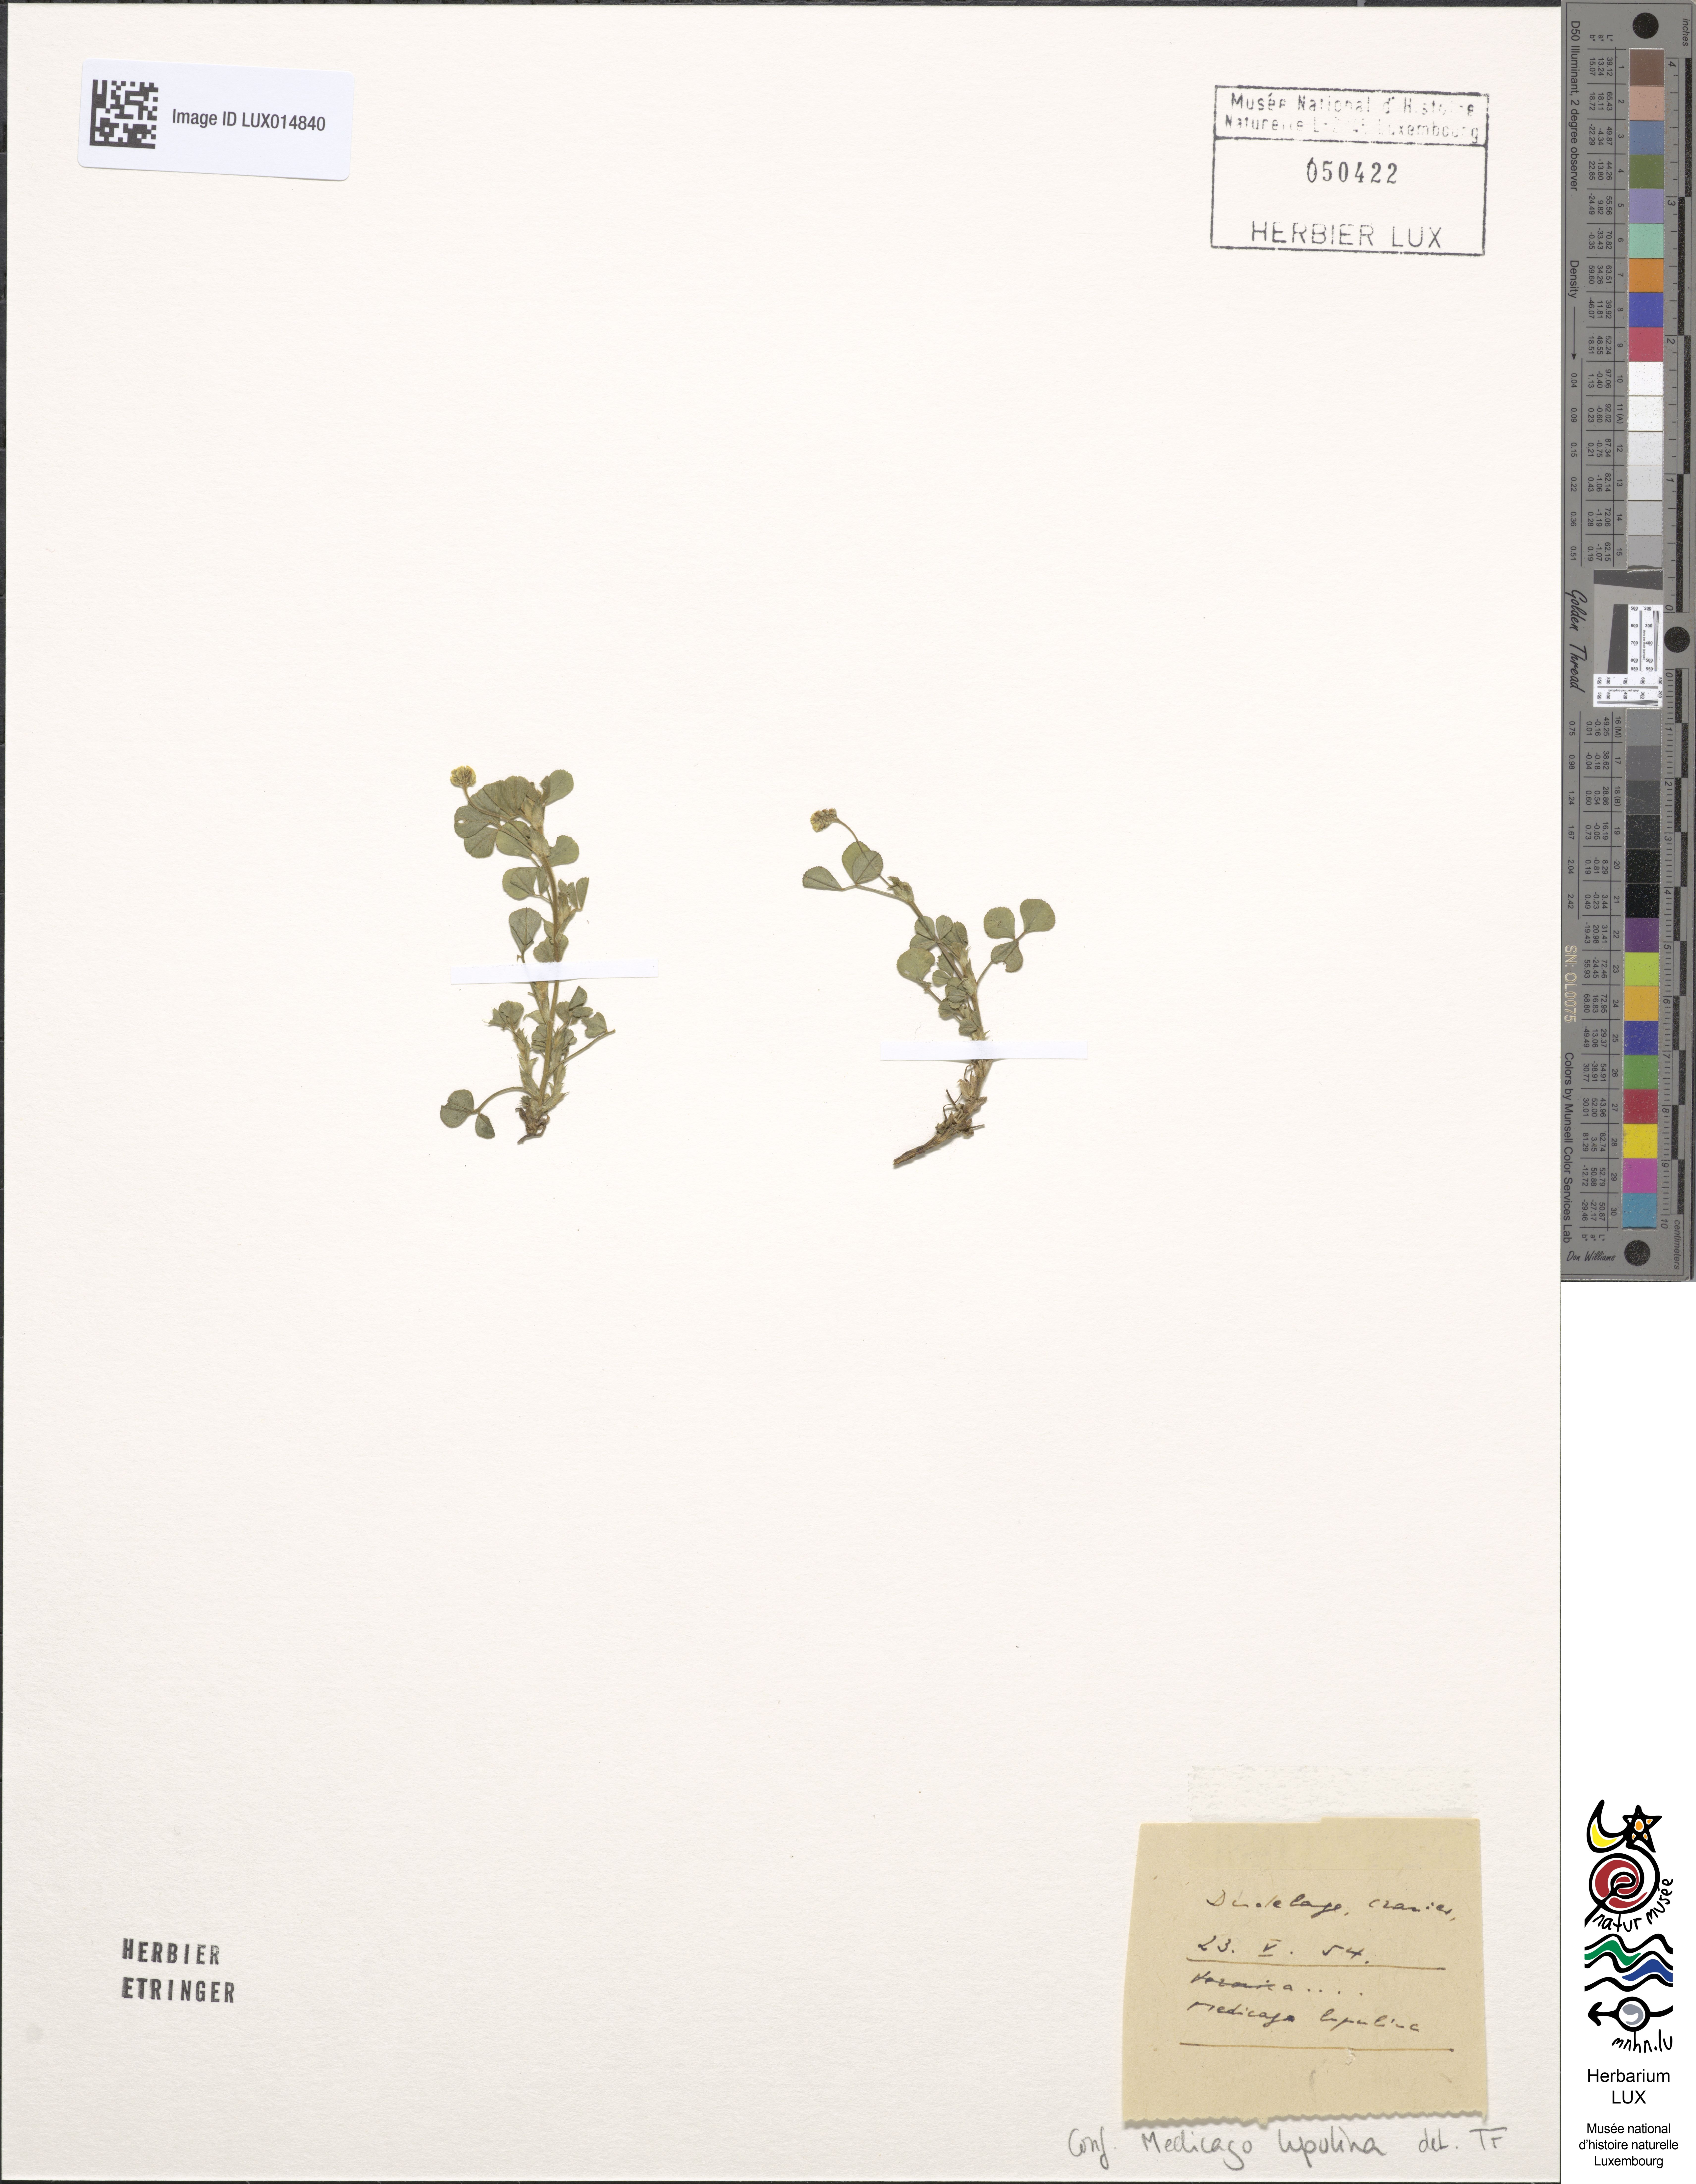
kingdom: Plantae
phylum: Tracheophyta
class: Magnoliopsida
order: Fabales
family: Fabaceae
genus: Medicago
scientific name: Medicago lupulina
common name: Black medick
